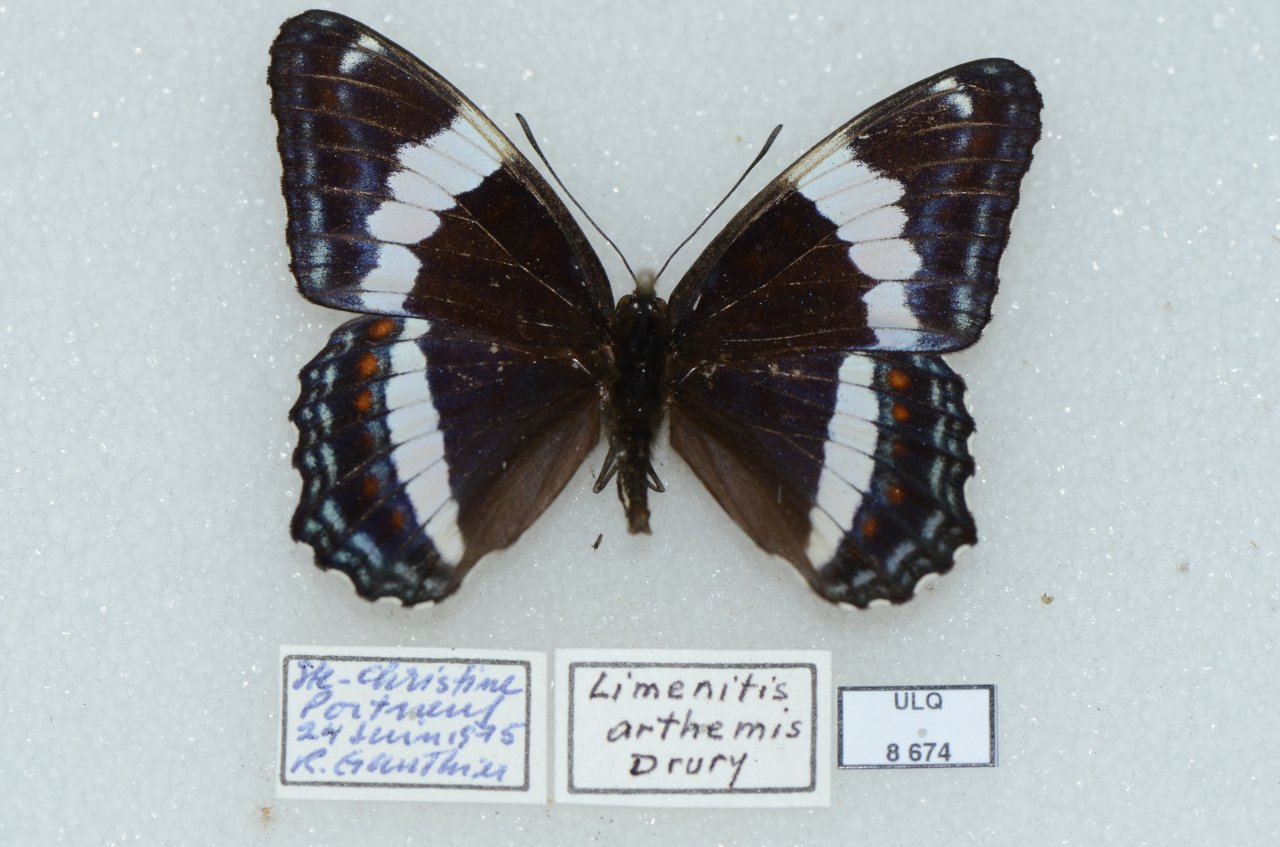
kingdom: Animalia
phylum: Arthropoda
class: Insecta
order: Lepidoptera
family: Nymphalidae
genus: Limenitis
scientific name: Limenitis arthemis
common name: Red-spotted Admiral
